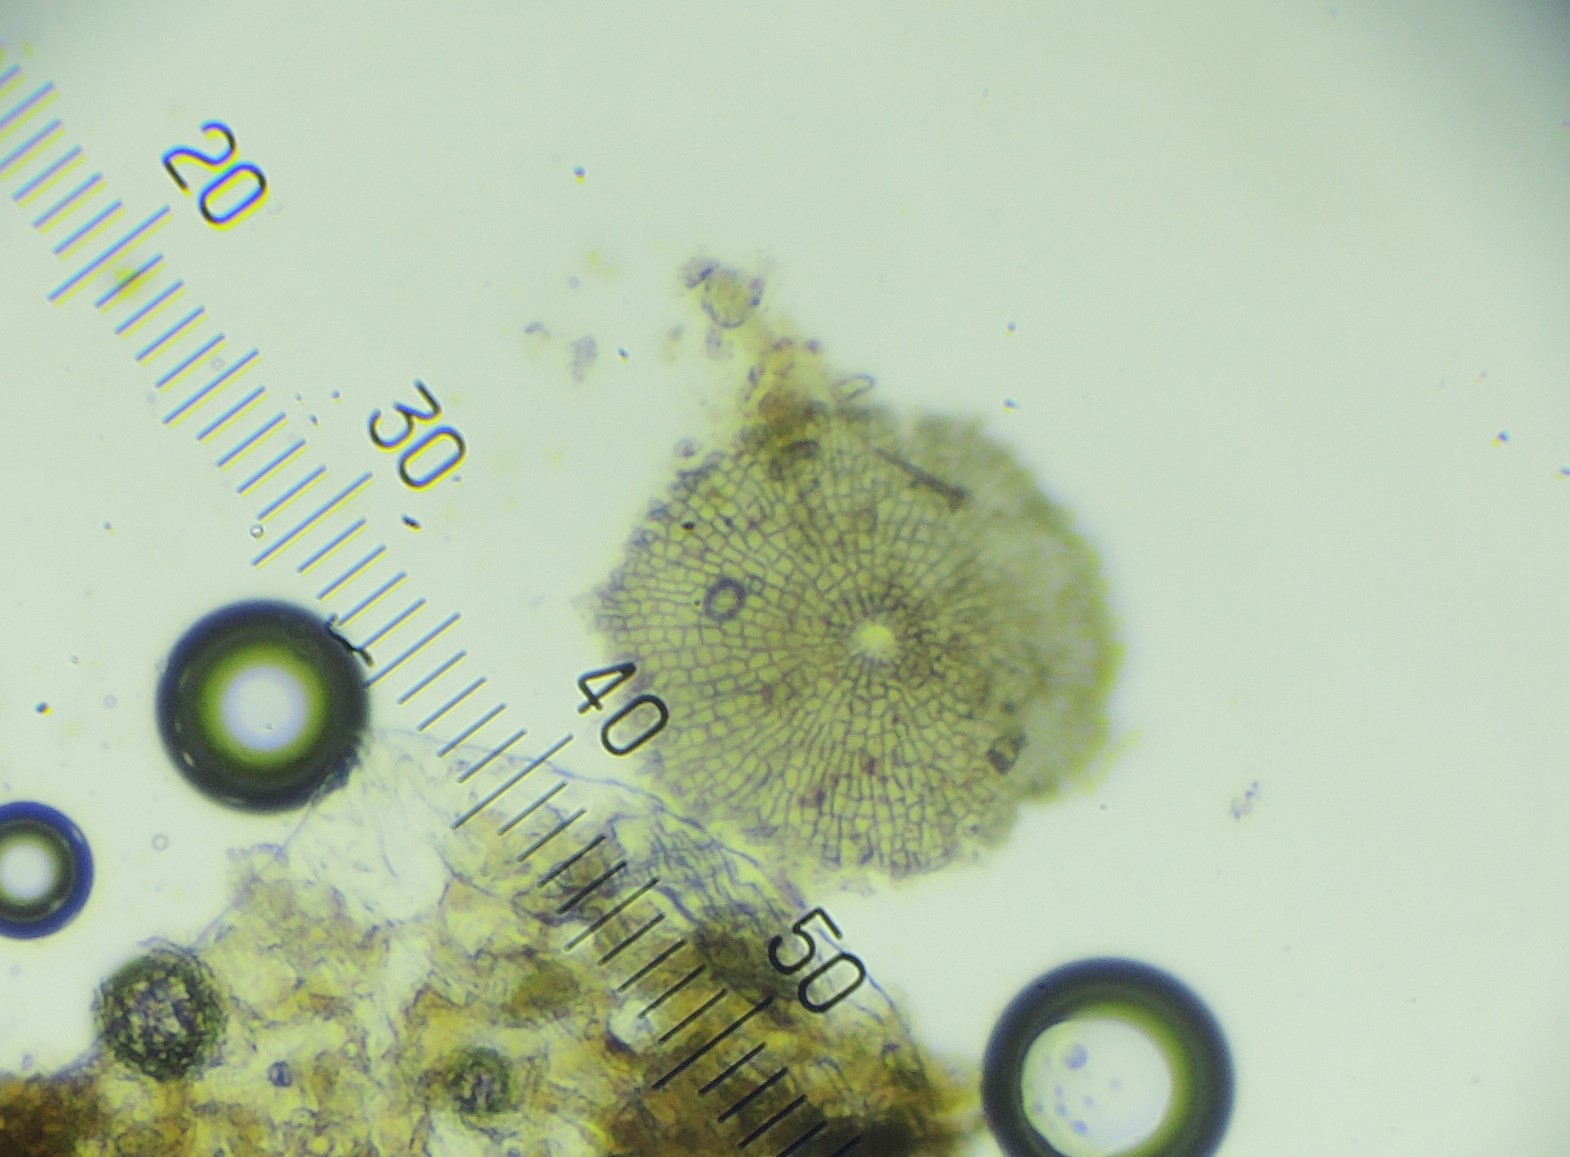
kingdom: Fungi
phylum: Ascomycota
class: Dothideomycetes
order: Microthyriales
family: Microthyriaceae
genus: Microthyrium
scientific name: Microthyrium ciliatum
